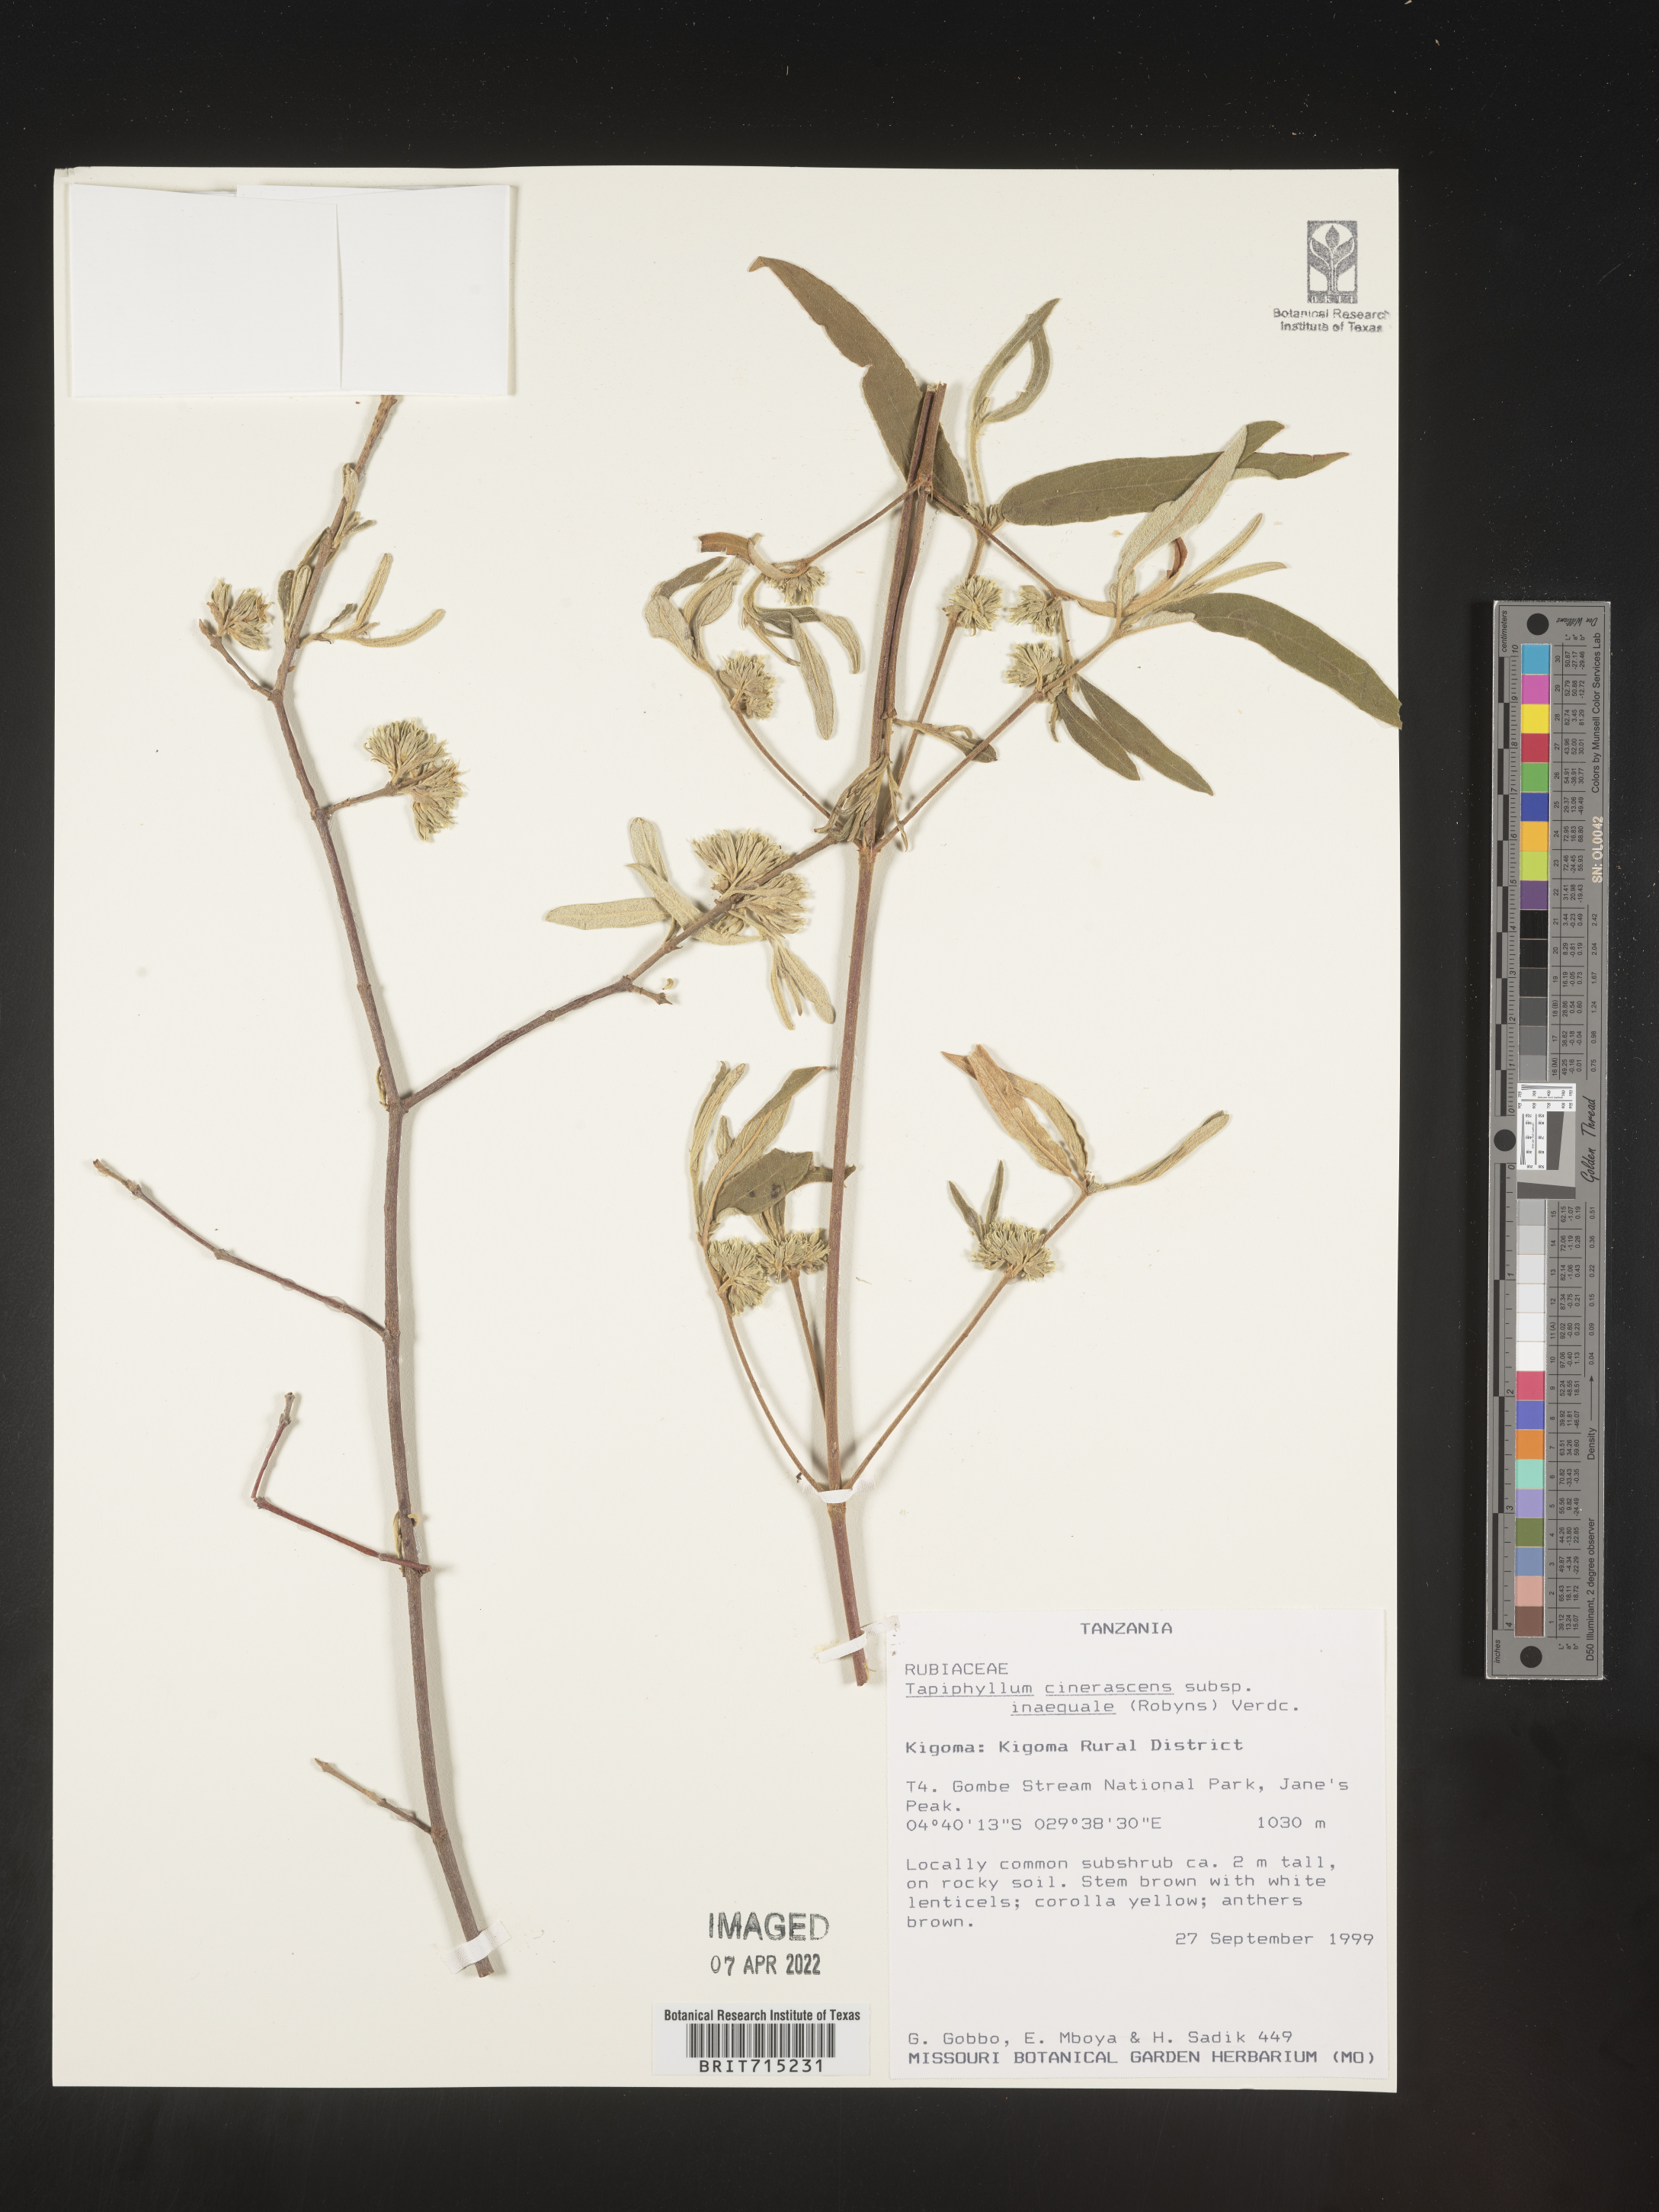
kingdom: Plantae
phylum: Tracheophyta
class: Magnoliopsida
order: Gentianales
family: Rubiaceae
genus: Vangueria
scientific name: Vangueria
